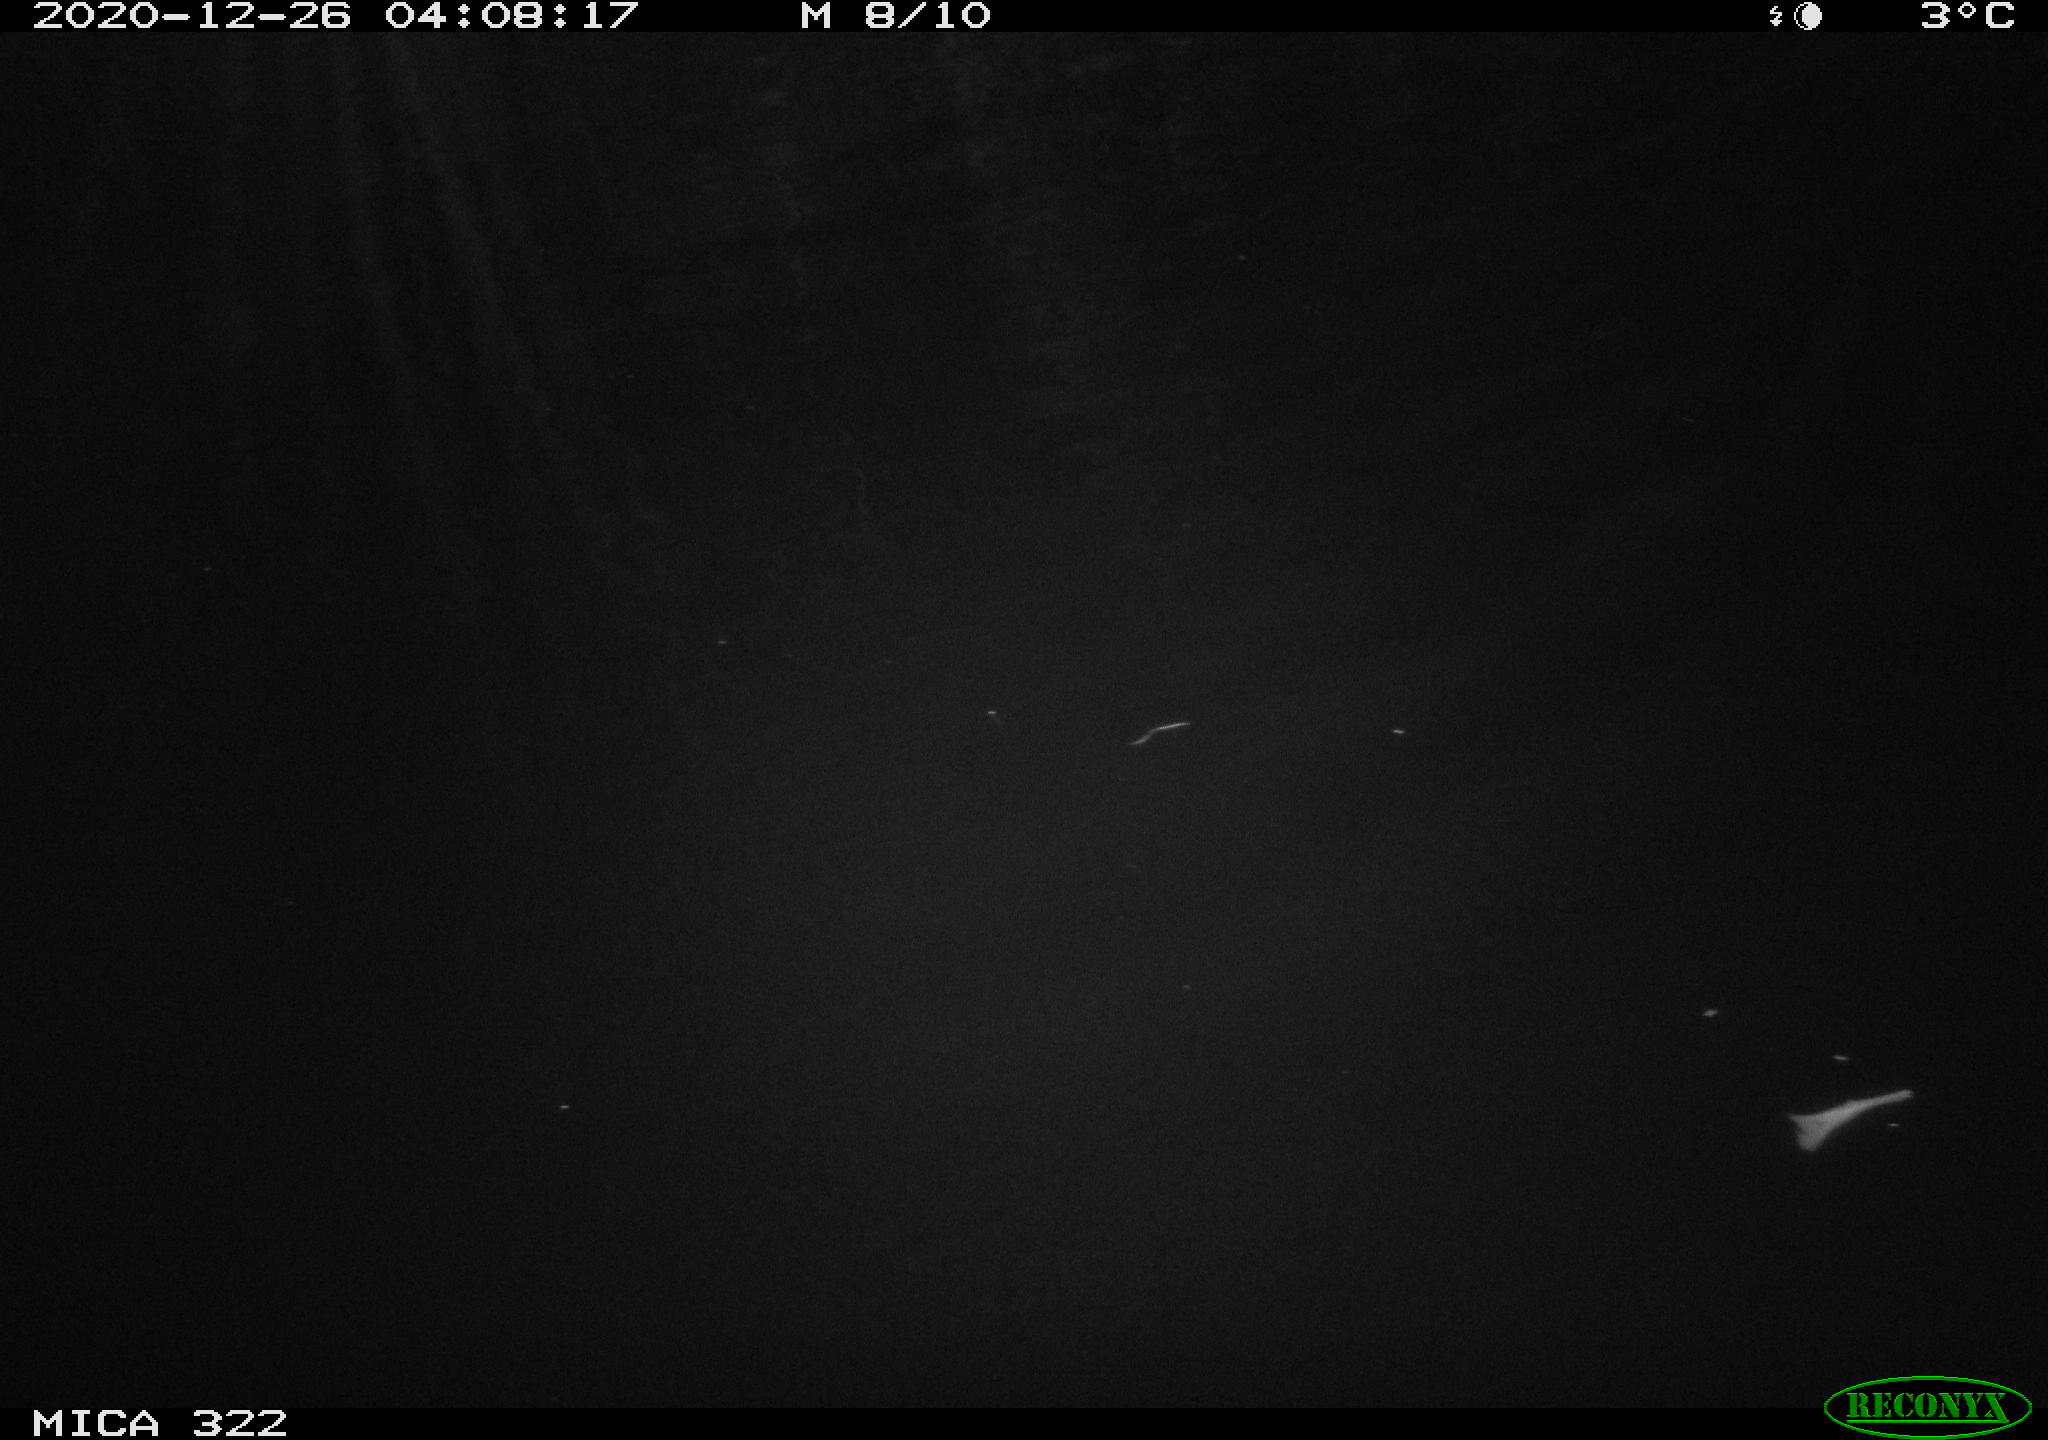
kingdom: Animalia
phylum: Chordata
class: Mammalia
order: Rodentia
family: Cricetidae
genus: Ondatra
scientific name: Ondatra zibethicus
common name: Muskrat
